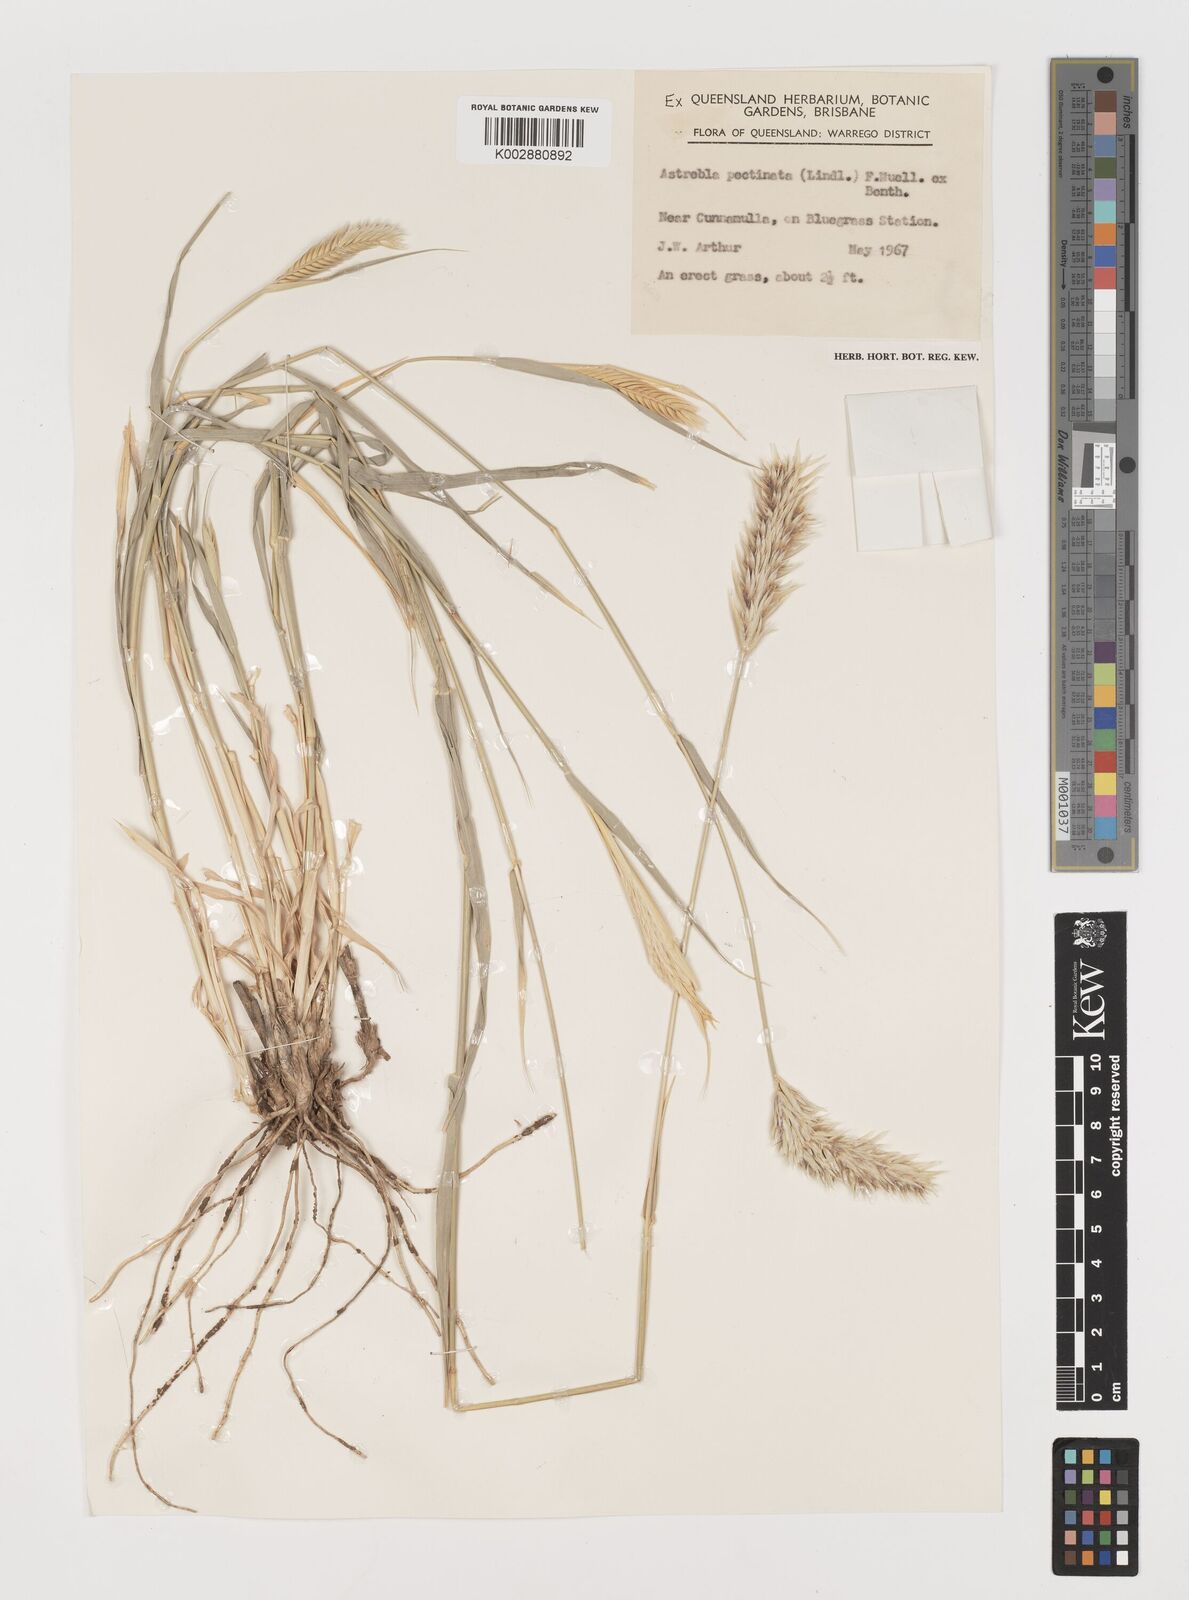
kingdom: Plantae
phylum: Tracheophyta
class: Liliopsida
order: Poales
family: Poaceae
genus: Astrebla
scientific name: Astrebla pectinata
